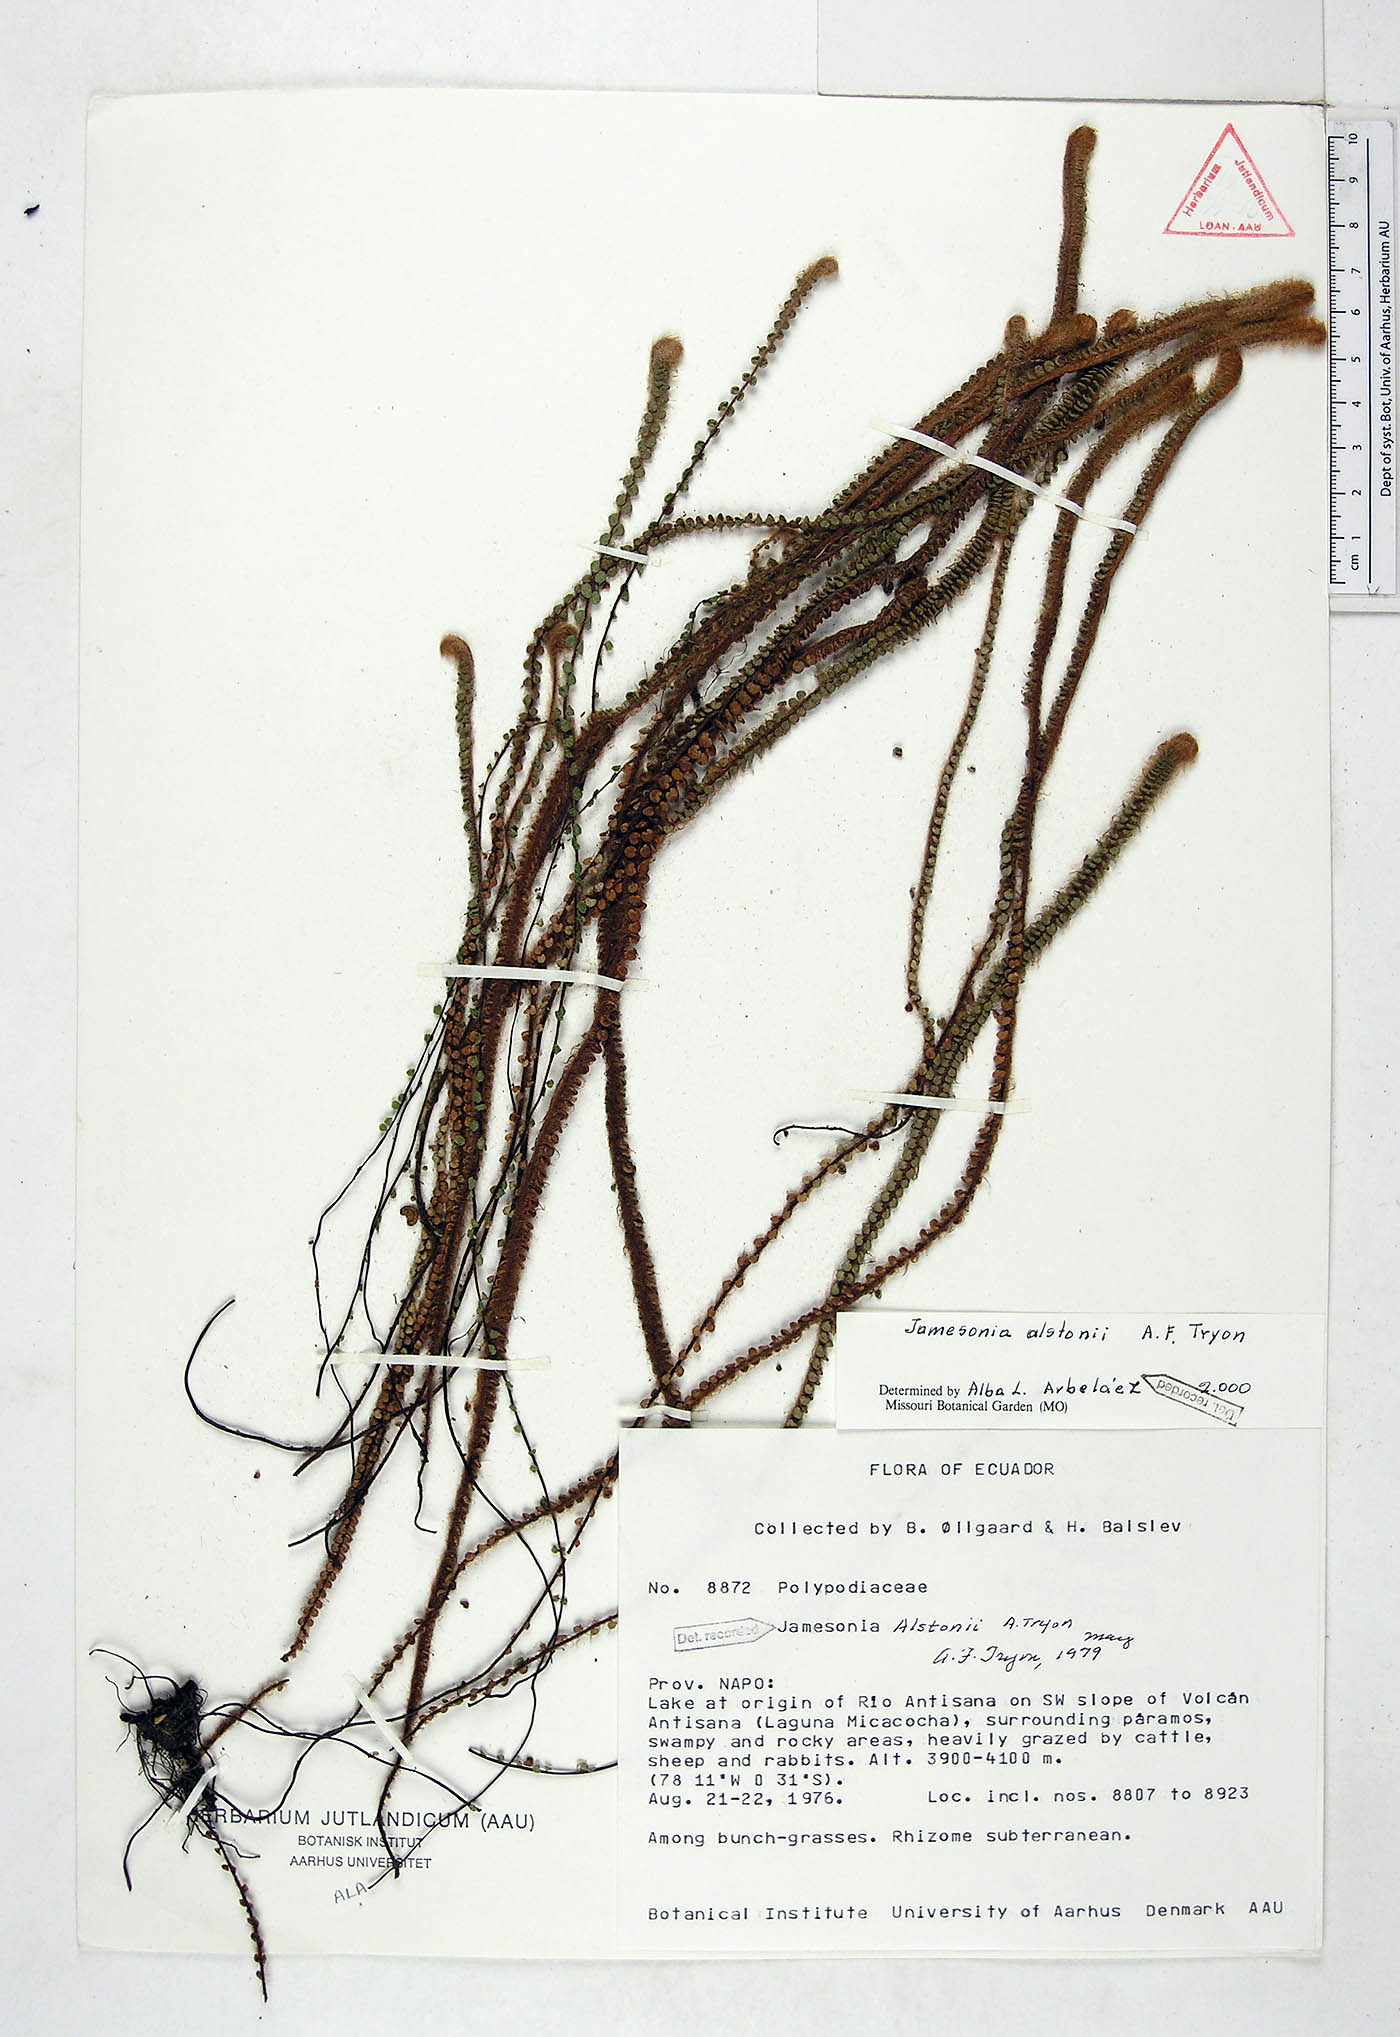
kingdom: Plantae
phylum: Tracheophyta
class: Polypodiopsida
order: Polypodiales
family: Pteridaceae
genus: Jamesonia
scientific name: Jamesonia alstonii
